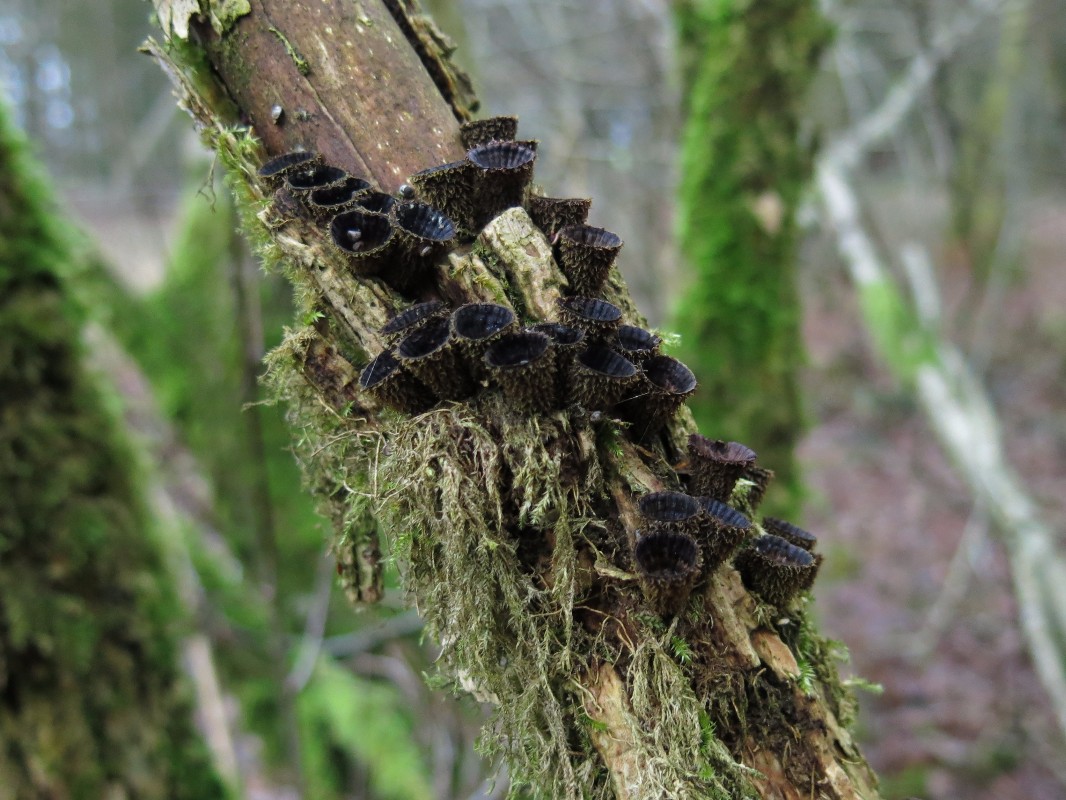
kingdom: Fungi
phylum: Basidiomycota
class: Agaricomycetes
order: Agaricales
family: Agaricaceae
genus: Cyathus
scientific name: Cyathus striatus
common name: stribet redesvamp
